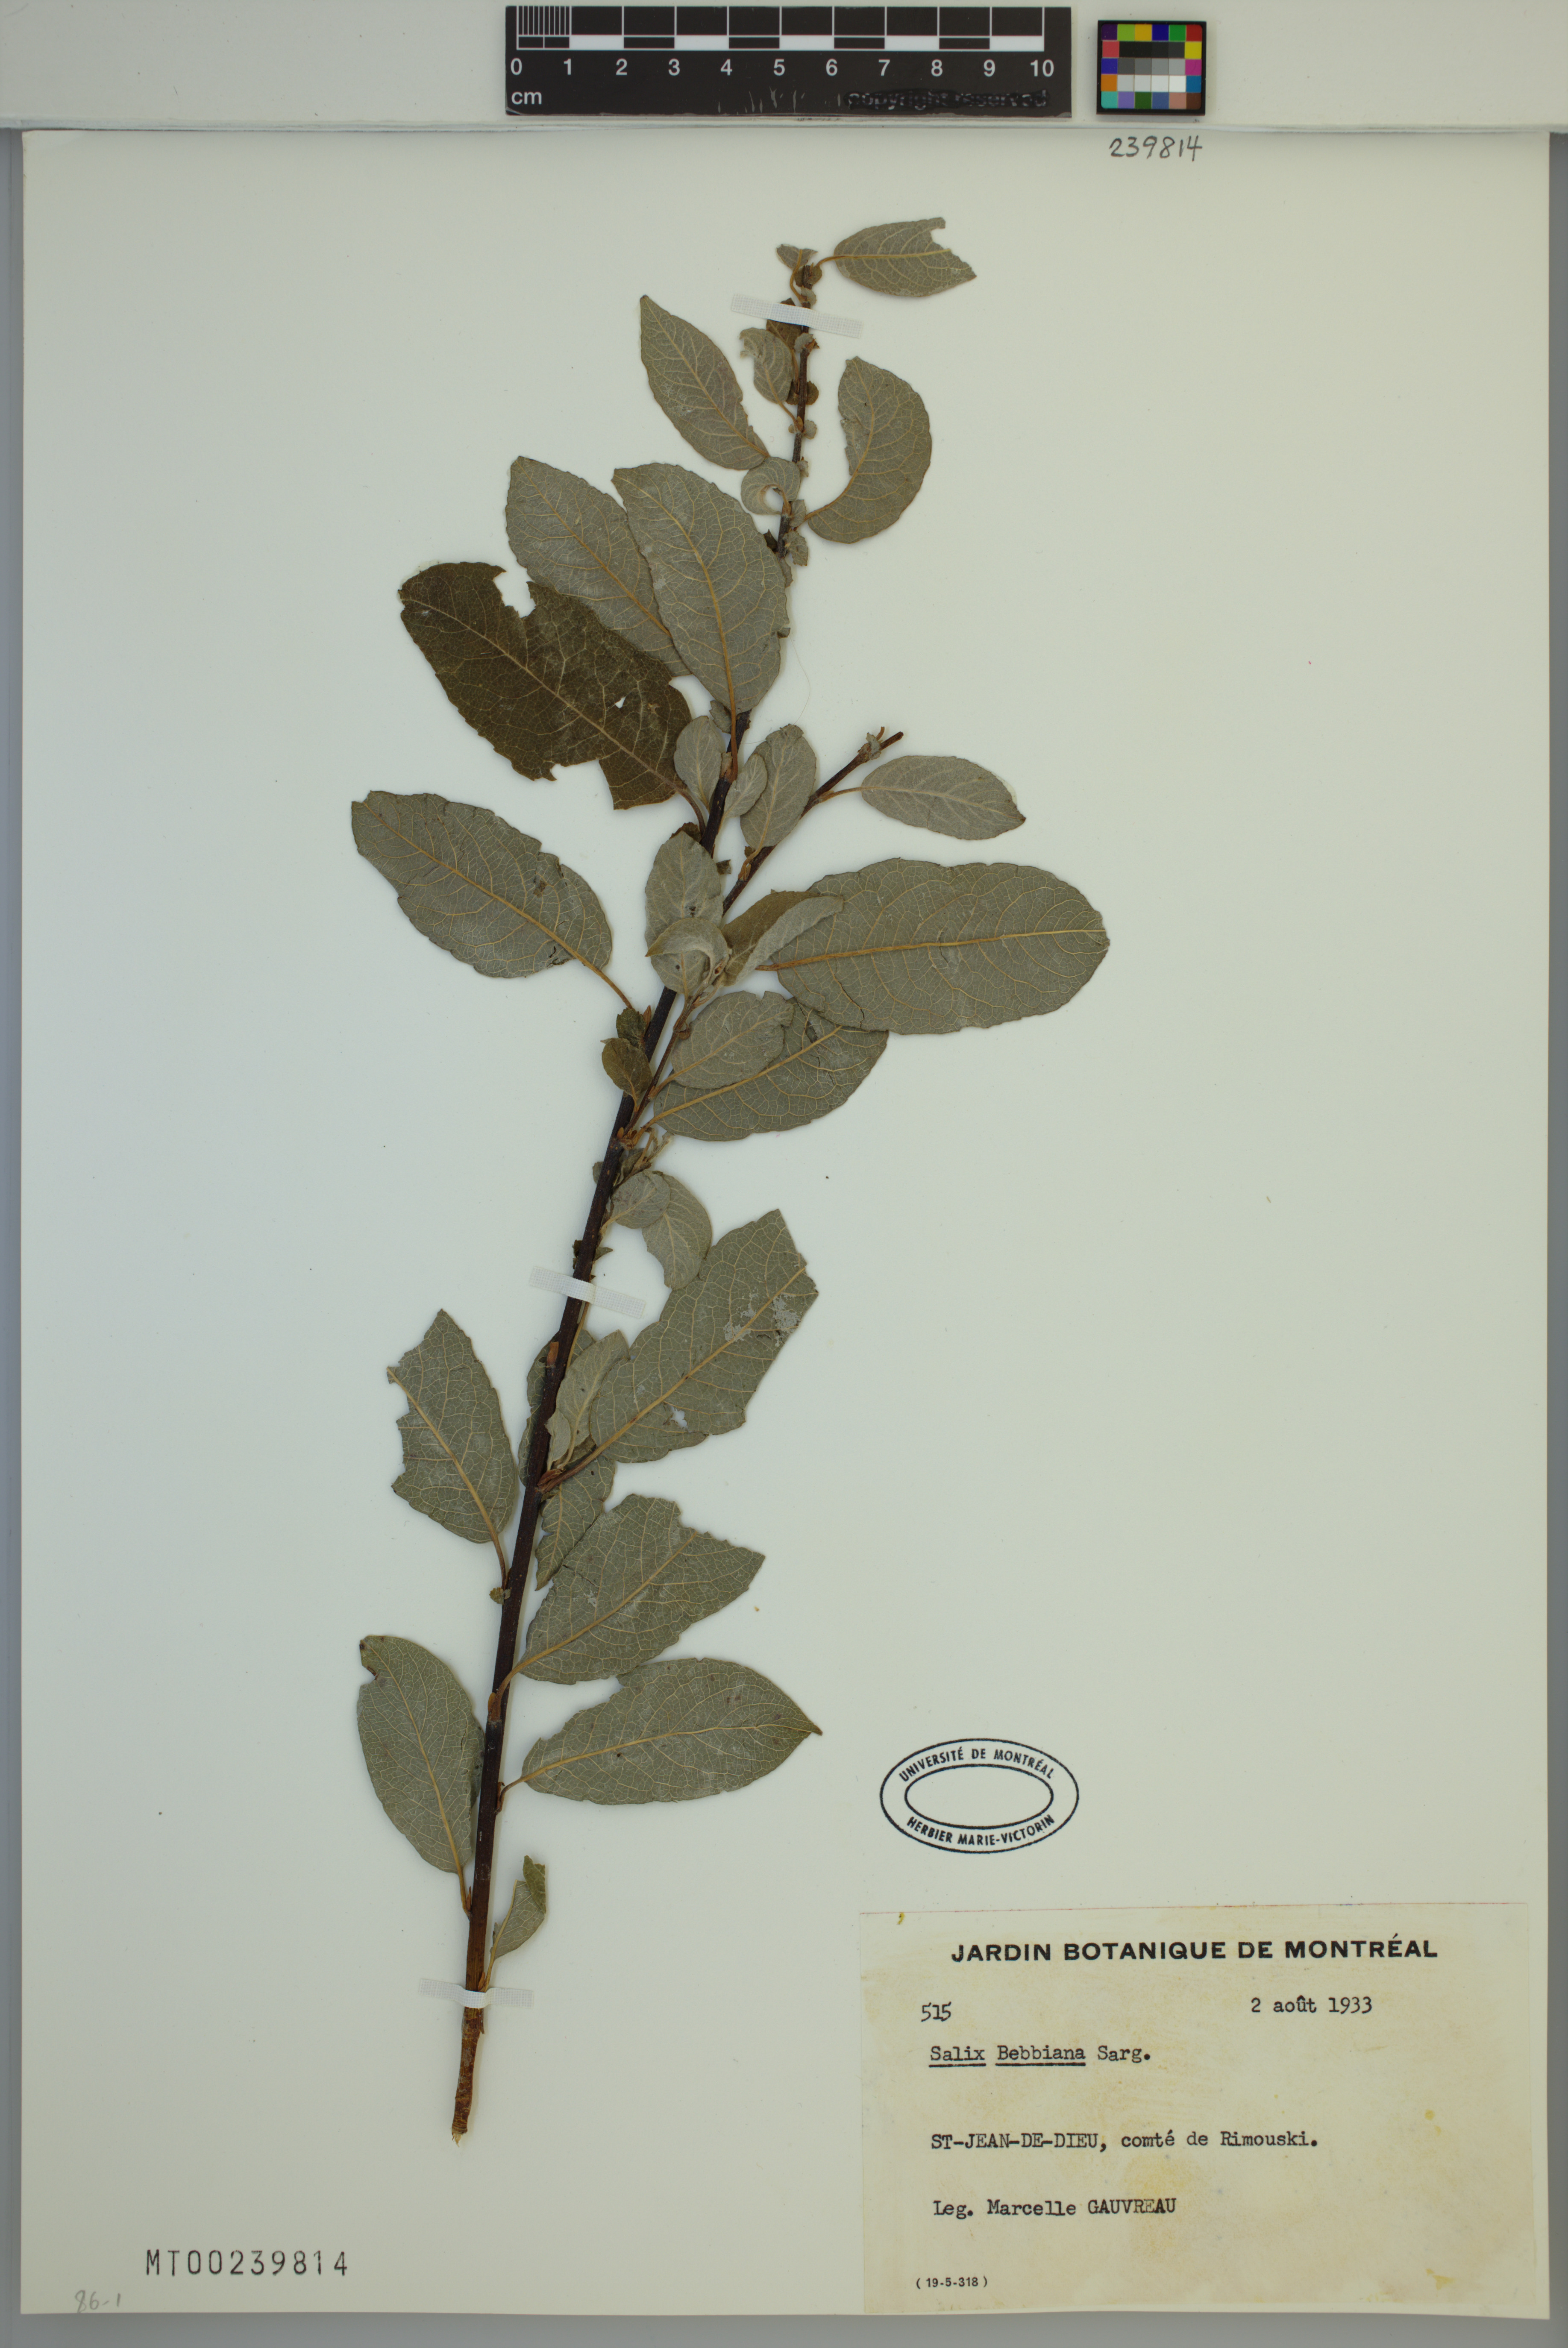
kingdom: Plantae
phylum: Tracheophyta
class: Magnoliopsida
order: Malpighiales
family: Salicaceae
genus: Salix
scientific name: Salix bebbiana
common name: Bebb's willow
